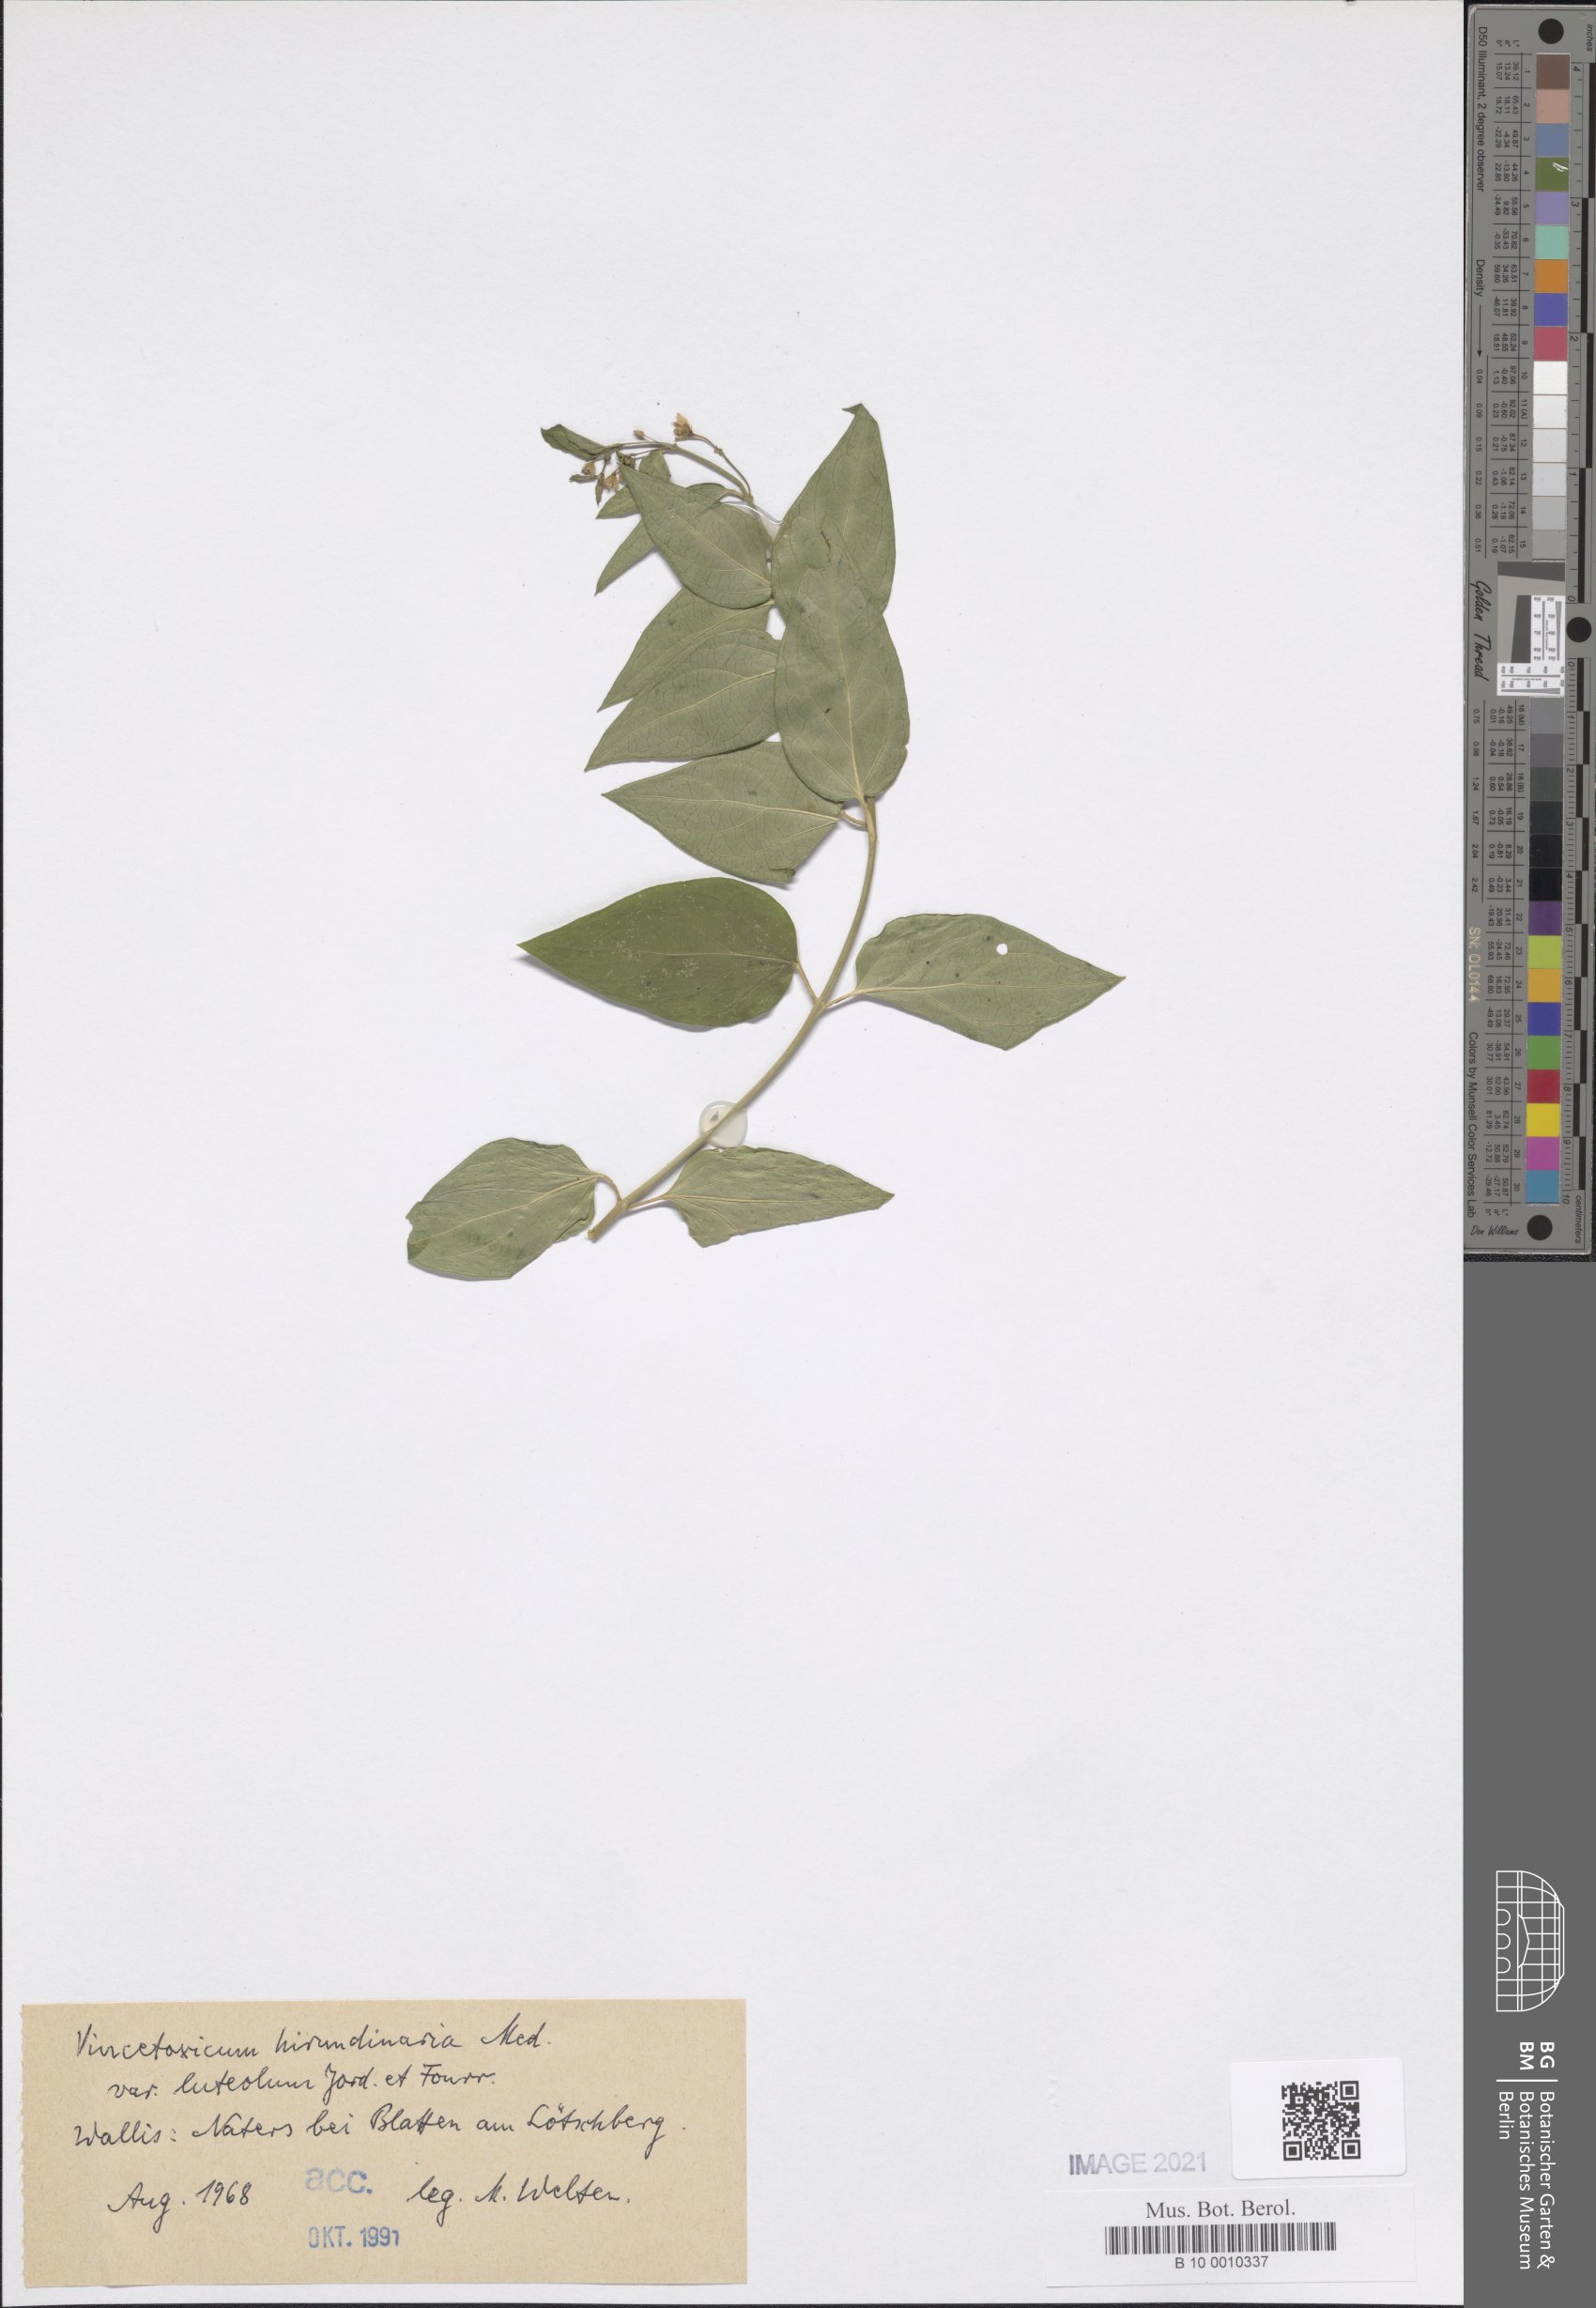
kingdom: Plantae
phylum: Tracheophyta
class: Magnoliopsida
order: Gentianales
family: Apocynaceae
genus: Vincetoxicum
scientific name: Vincetoxicum hirundinaria
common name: White swallowwort
